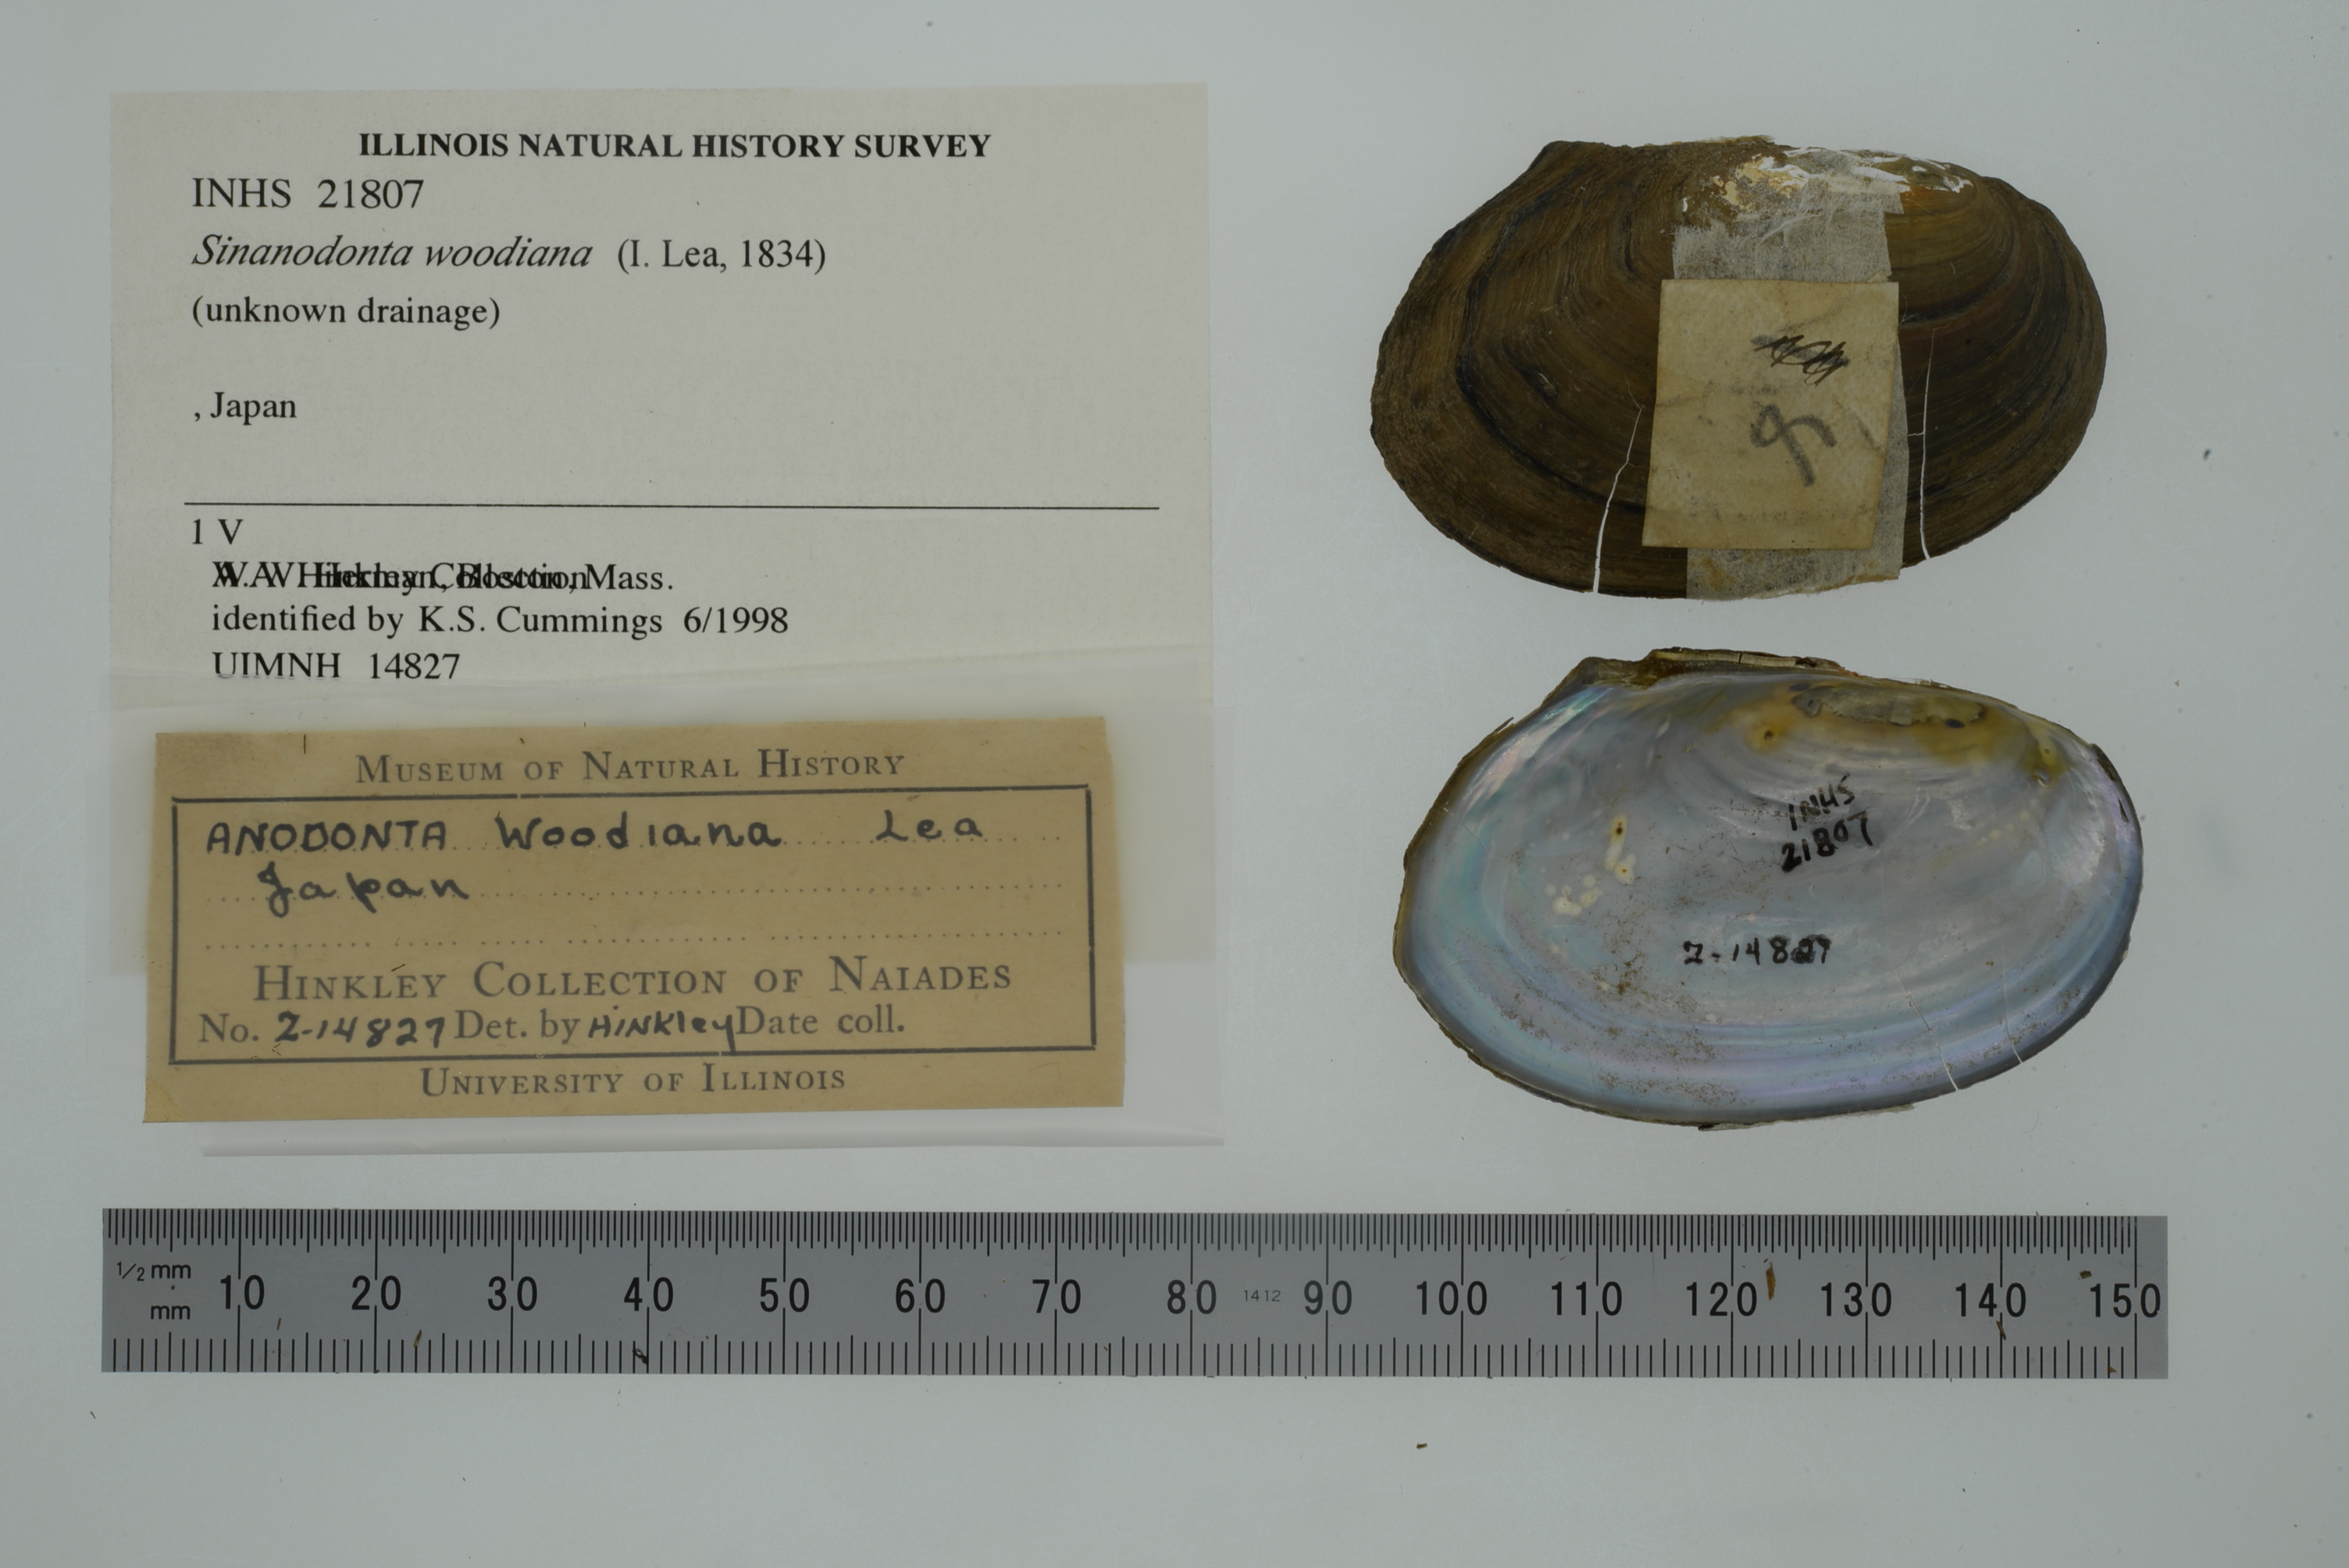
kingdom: Animalia
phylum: Mollusca
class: Bivalvia
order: Unionida
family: Unionidae
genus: Sinanodonta
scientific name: Sinanodonta woodiana
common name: Chinese pond mussel
